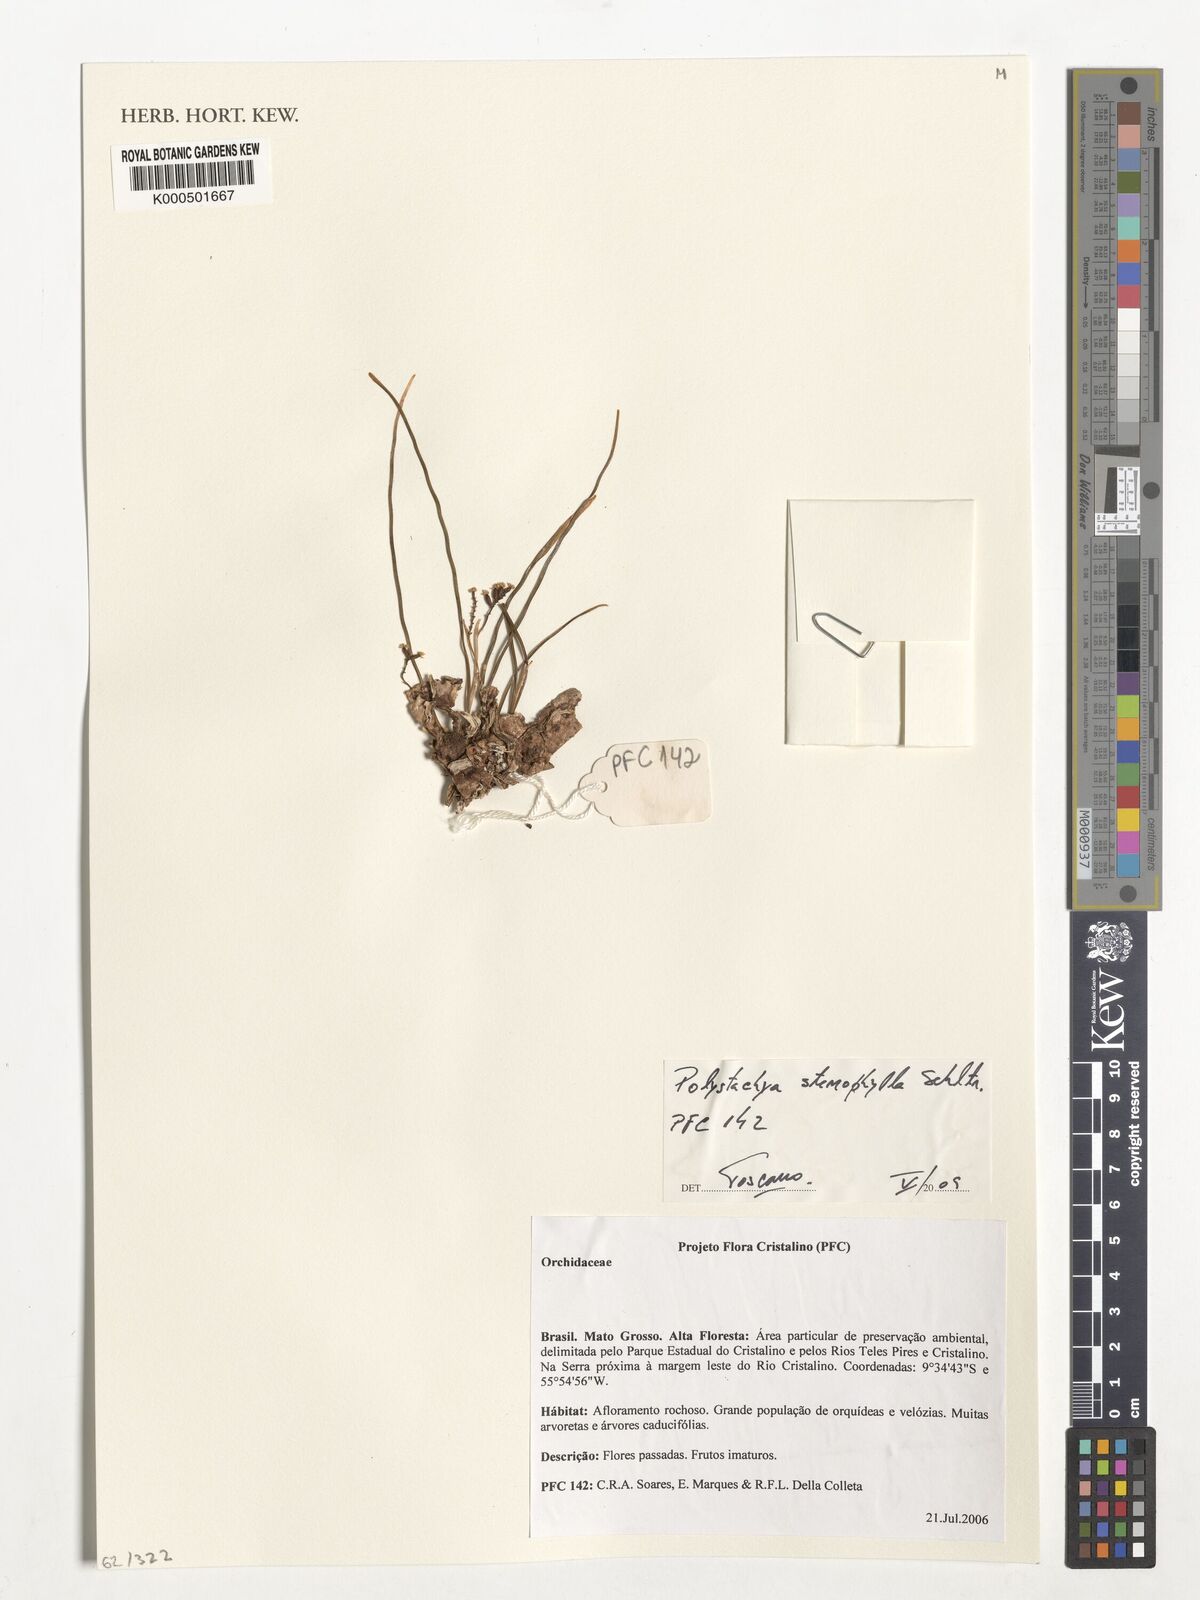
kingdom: Plantae
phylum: Tracheophyta
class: Liliopsida
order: Asparagales
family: Orchidaceae
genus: Polystachya
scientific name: Polystachya stenophylla
